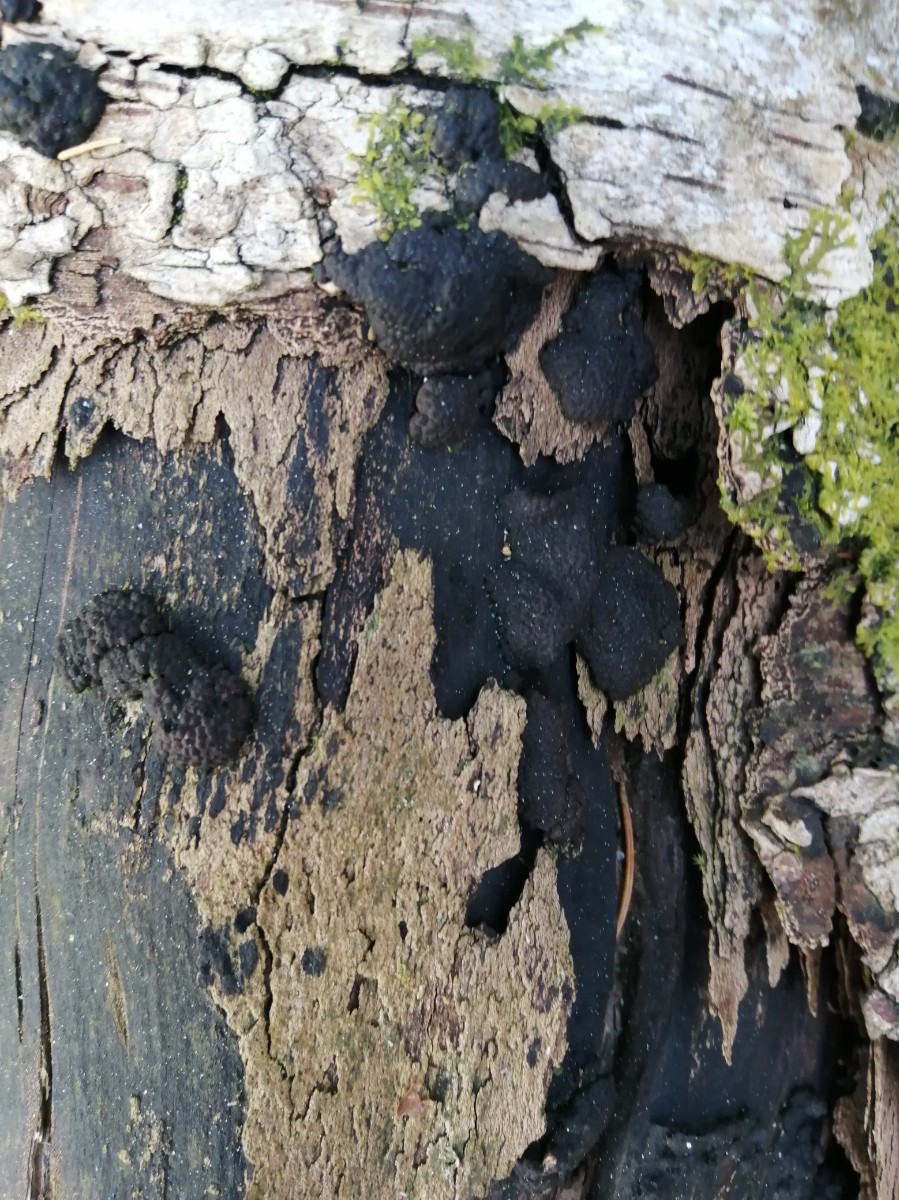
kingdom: Fungi
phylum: Ascomycota
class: Sordariomycetes
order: Xylariales
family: Hypoxylaceae
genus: Jackrogersella
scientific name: Jackrogersella multiformis
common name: foranderlig kulbær
